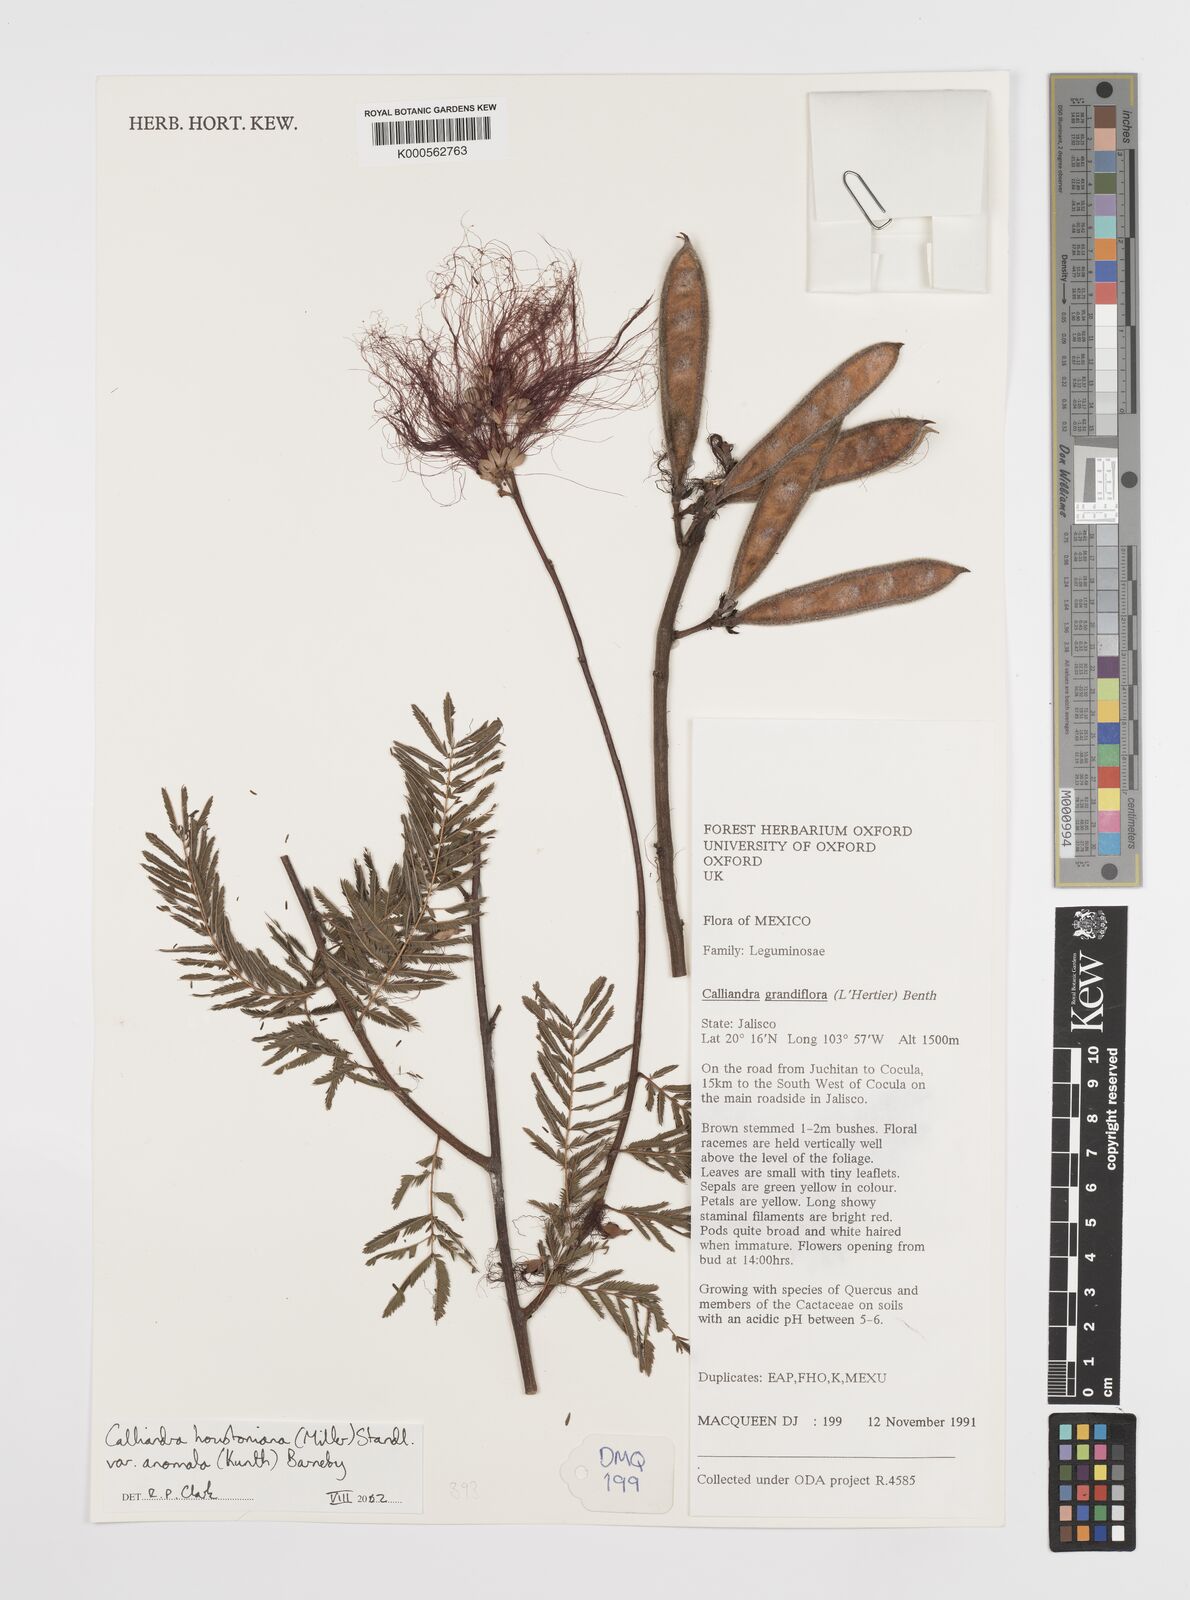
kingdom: Plantae
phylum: Tracheophyta
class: Magnoliopsida
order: Fabales
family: Fabaceae
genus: Calliandra
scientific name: Calliandra houstoniana
